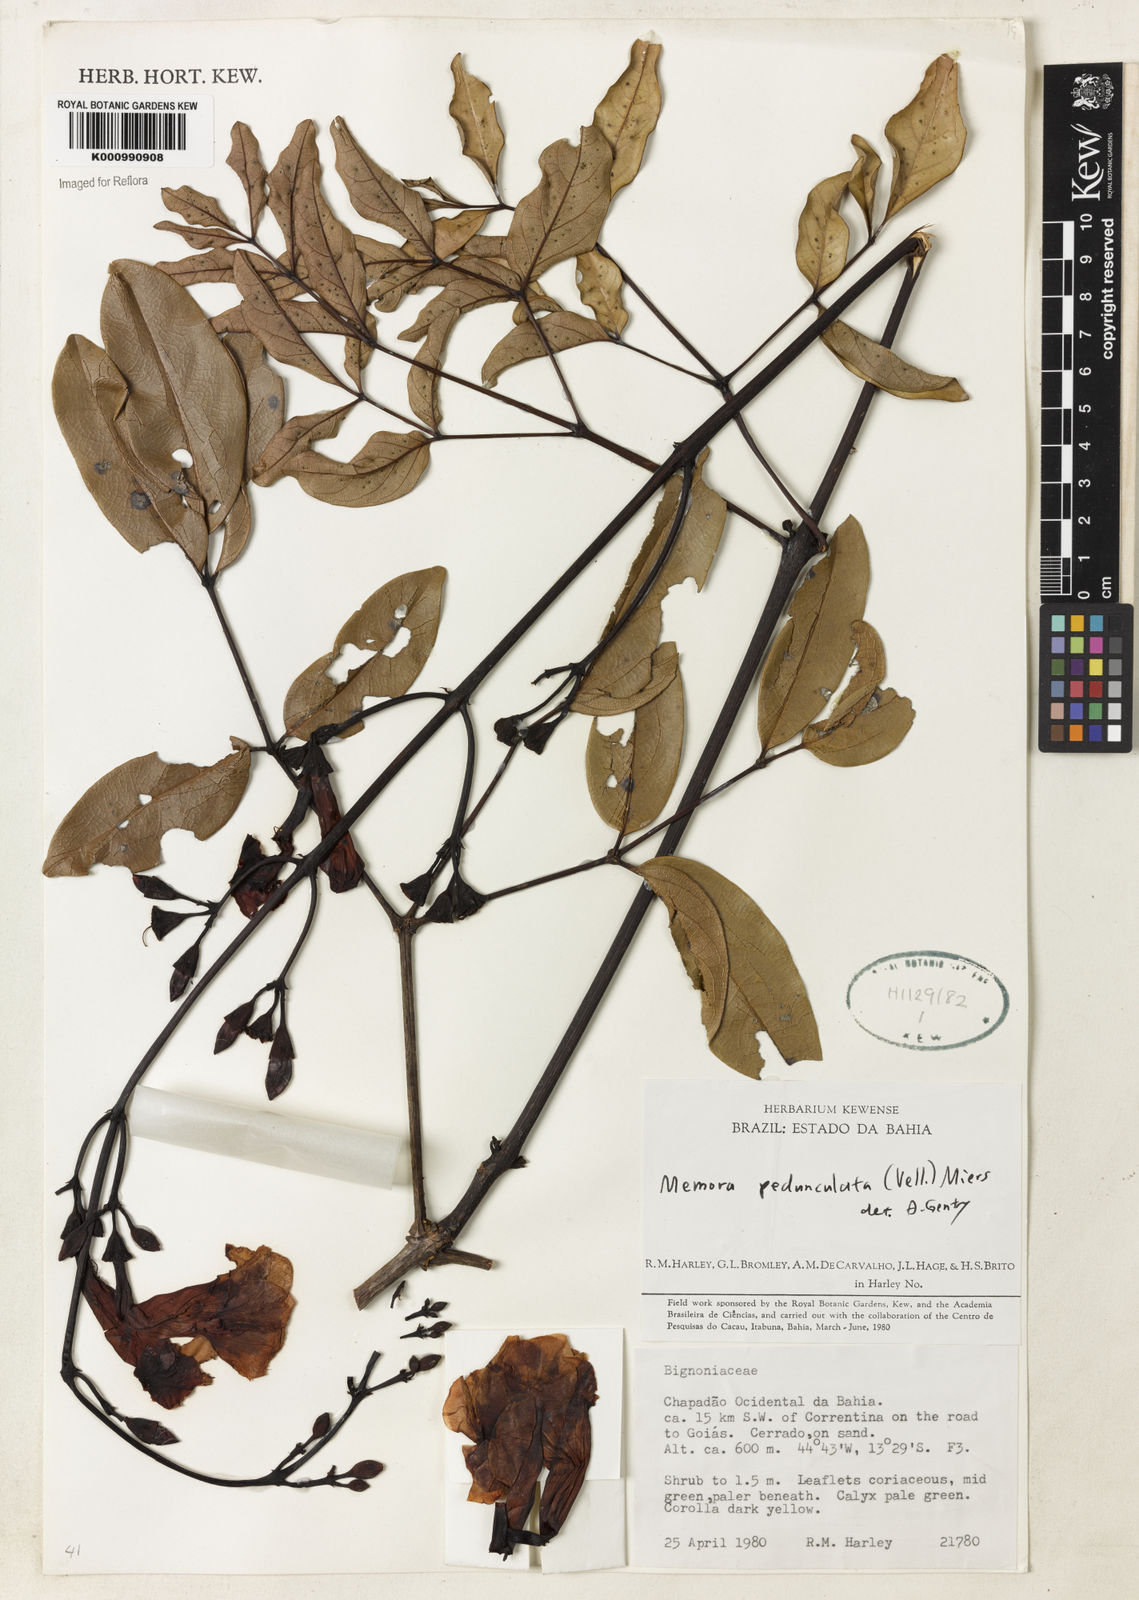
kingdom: Plantae
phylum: Tracheophyta
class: Magnoliopsida
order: Lamiales
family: Bignoniaceae
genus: Adenocalymma
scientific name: Adenocalymma pedunculatum
